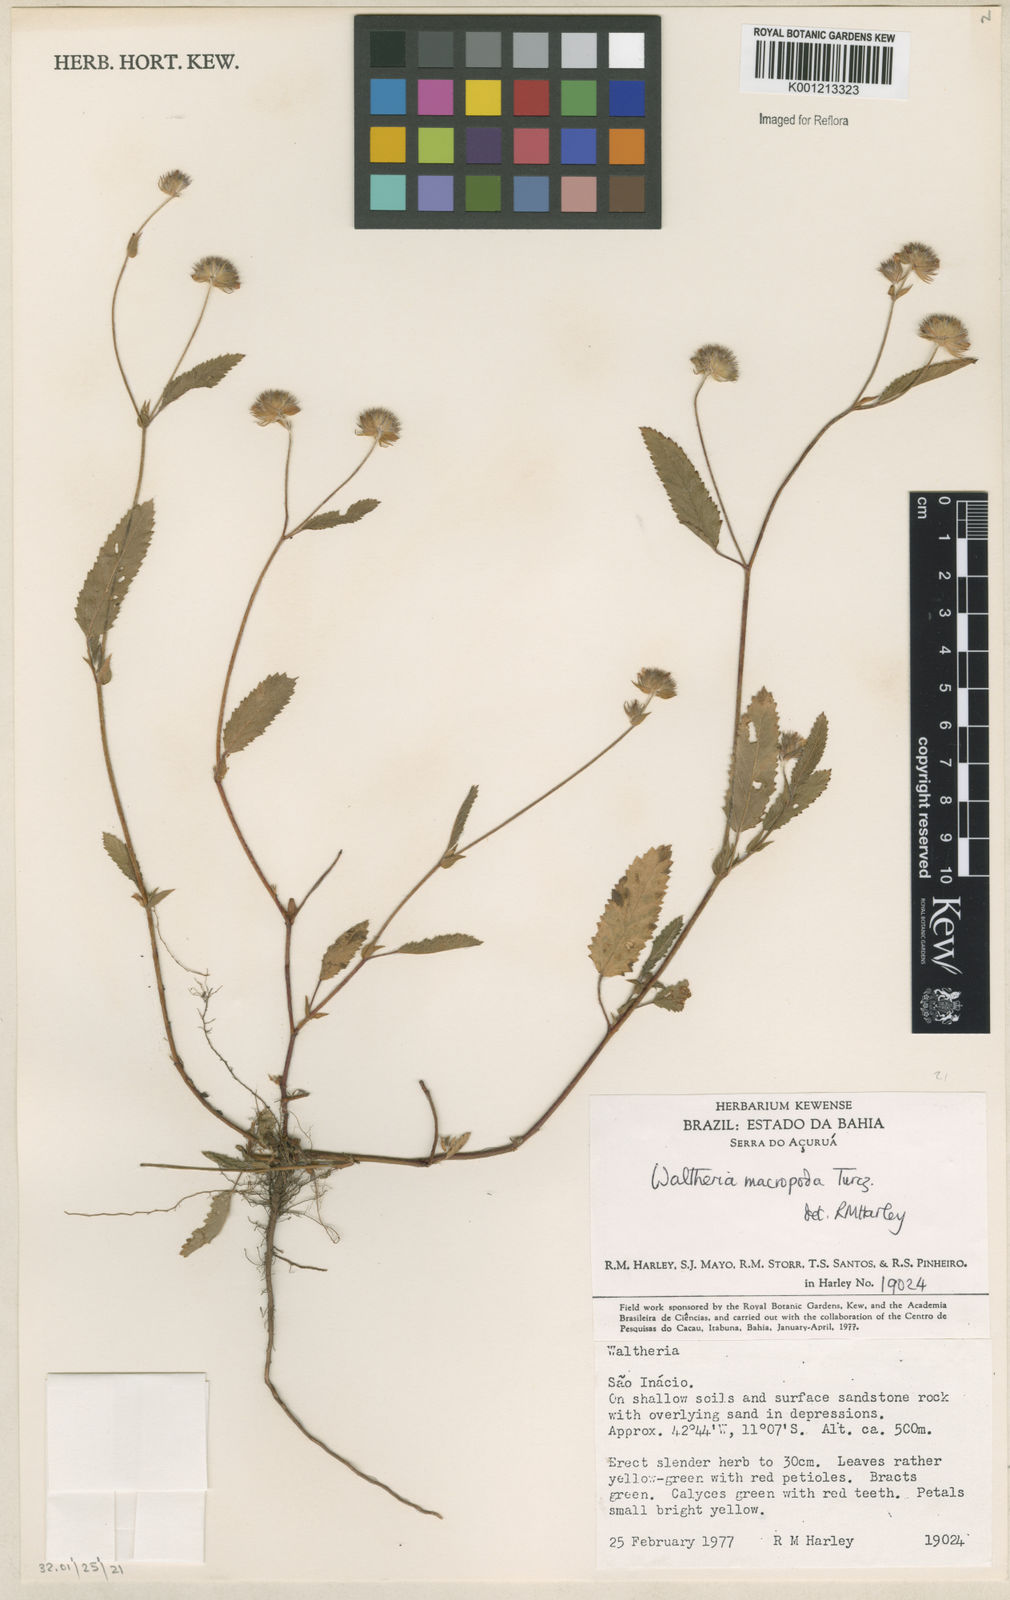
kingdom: Plantae
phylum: Tracheophyta
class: Magnoliopsida
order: Malvales
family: Malvaceae
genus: Waltheria
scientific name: Waltheria bracteosa
